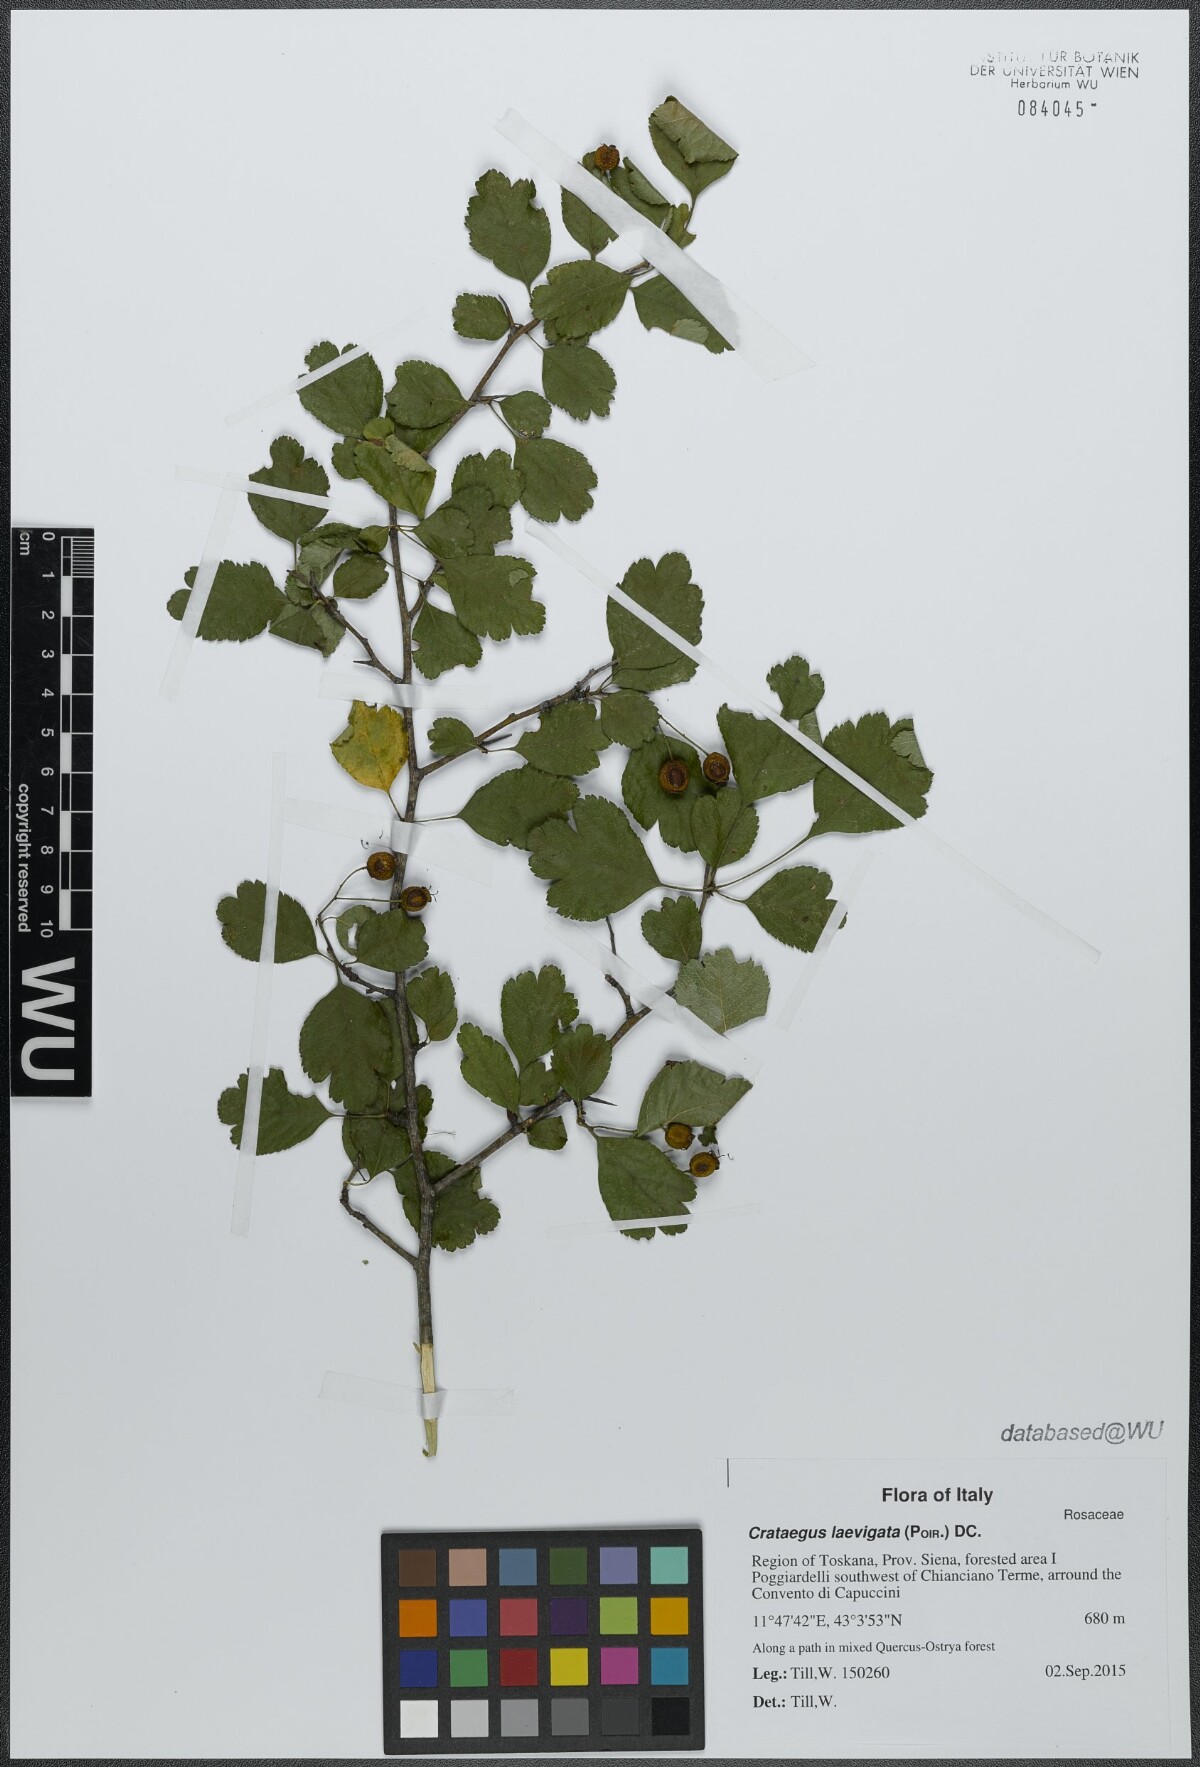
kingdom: Plantae
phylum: Tracheophyta
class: Magnoliopsida
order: Rosales
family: Rosaceae
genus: Crataegus
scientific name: Crataegus laevigata
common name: Midland hawthorn
